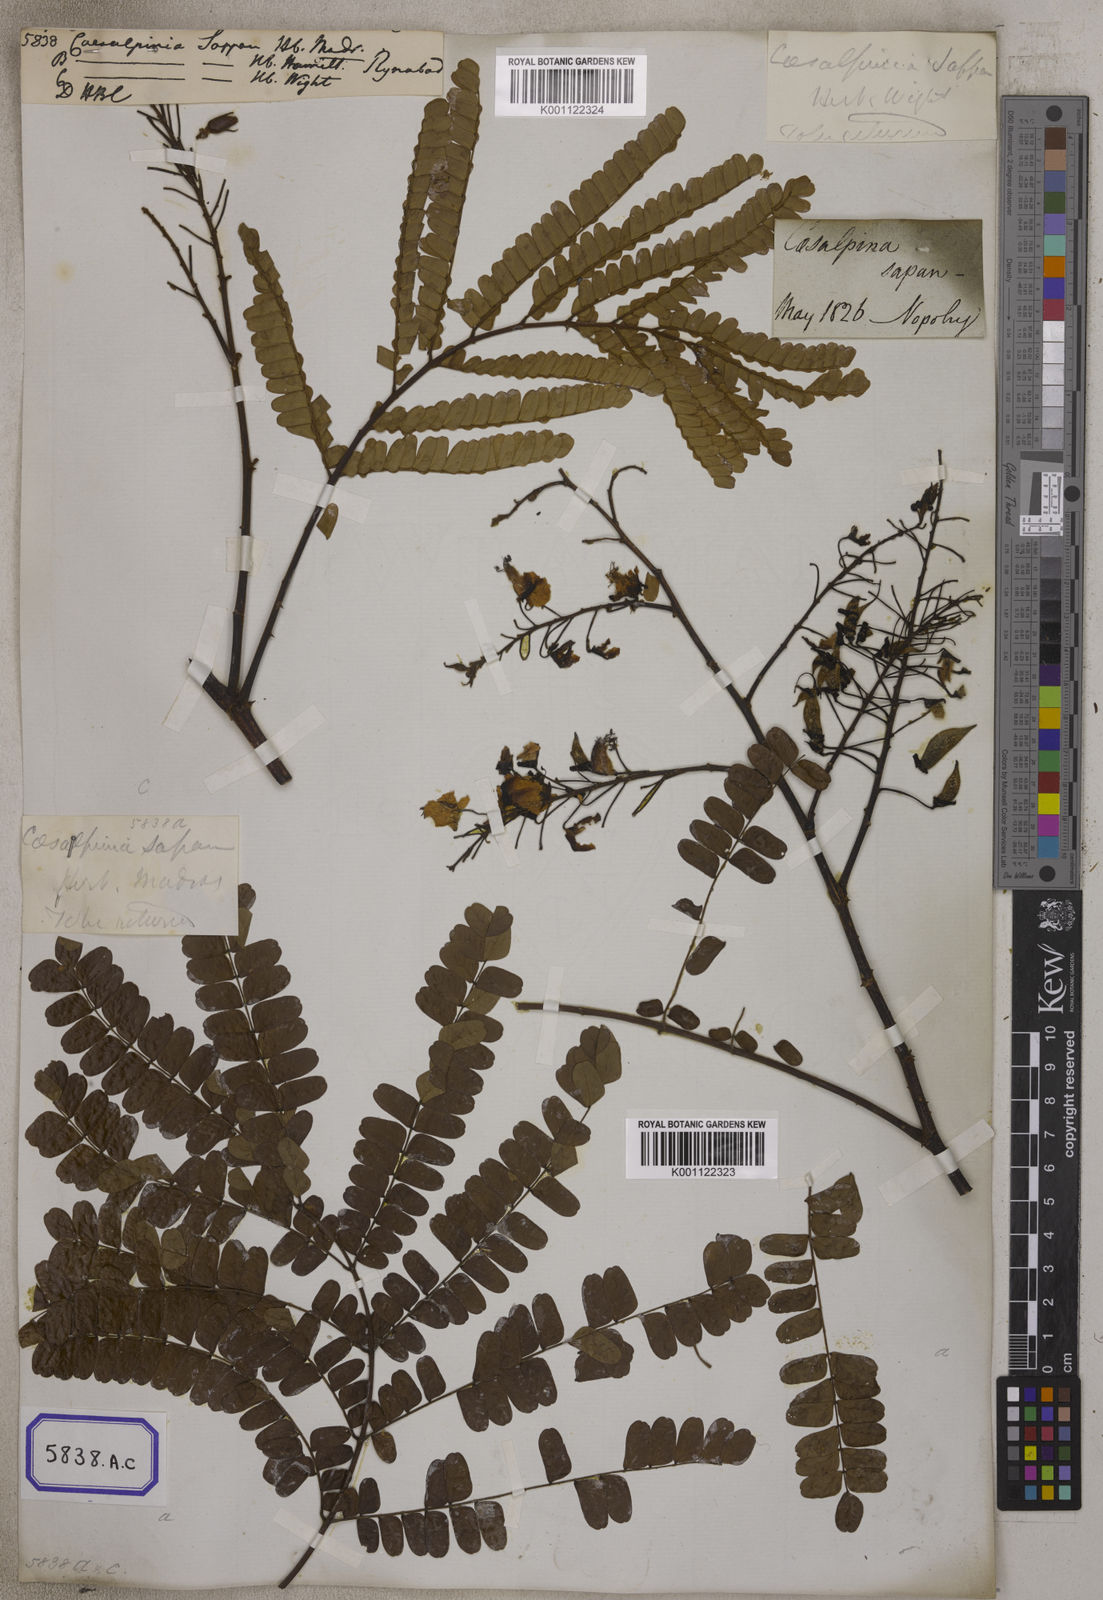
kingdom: Plantae
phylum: Tracheophyta
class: Magnoliopsida
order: Fabales
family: Fabaceae
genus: Biancaea
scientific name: Biancaea sappan
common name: Sappan
